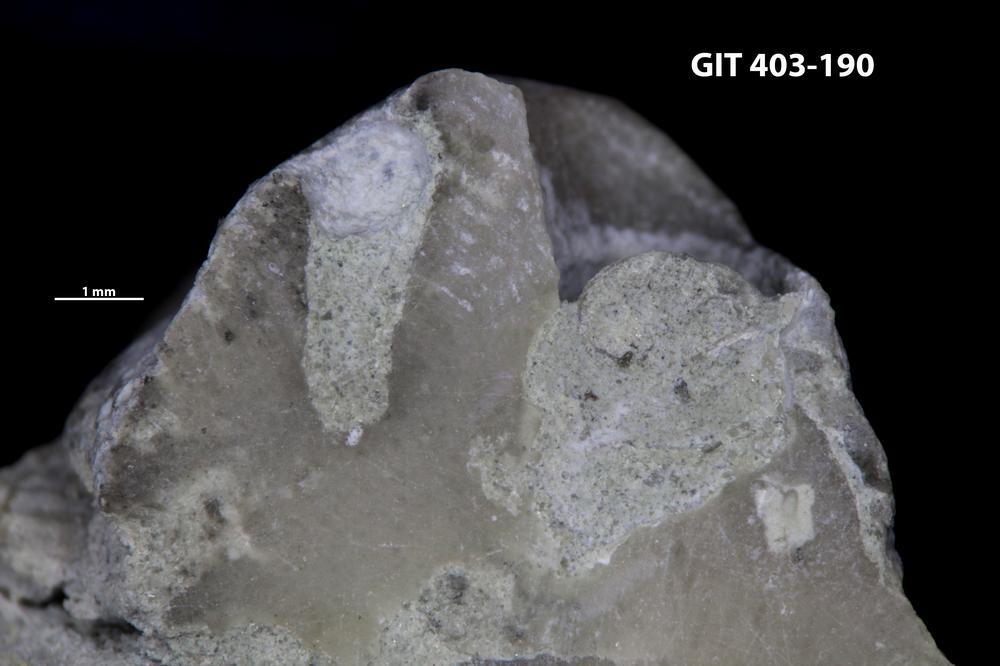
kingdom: Animalia
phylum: Cnidaria
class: Anthozoa
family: Tryplasmatidae
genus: Tryplasma
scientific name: Tryplasma
